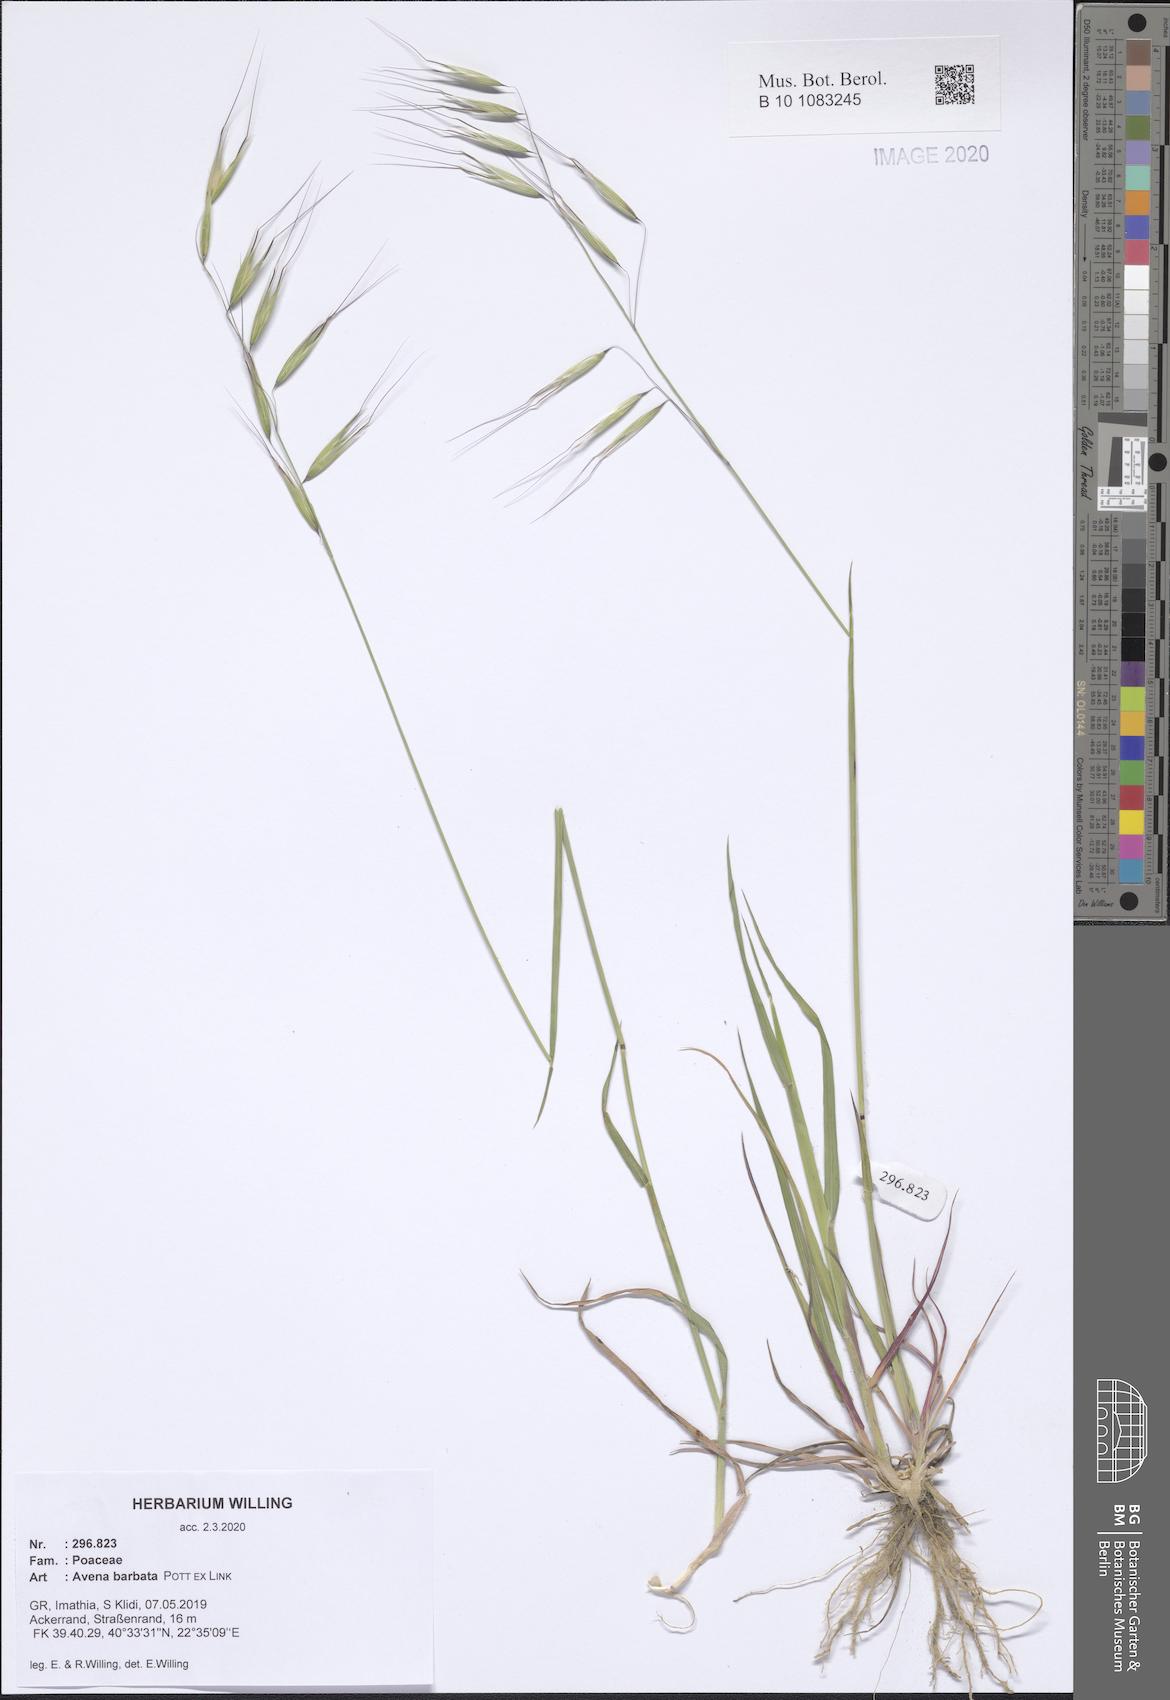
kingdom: Plantae
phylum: Tracheophyta
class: Liliopsida
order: Poales
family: Poaceae
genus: Avena
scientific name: Avena barbata
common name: Slender oat
